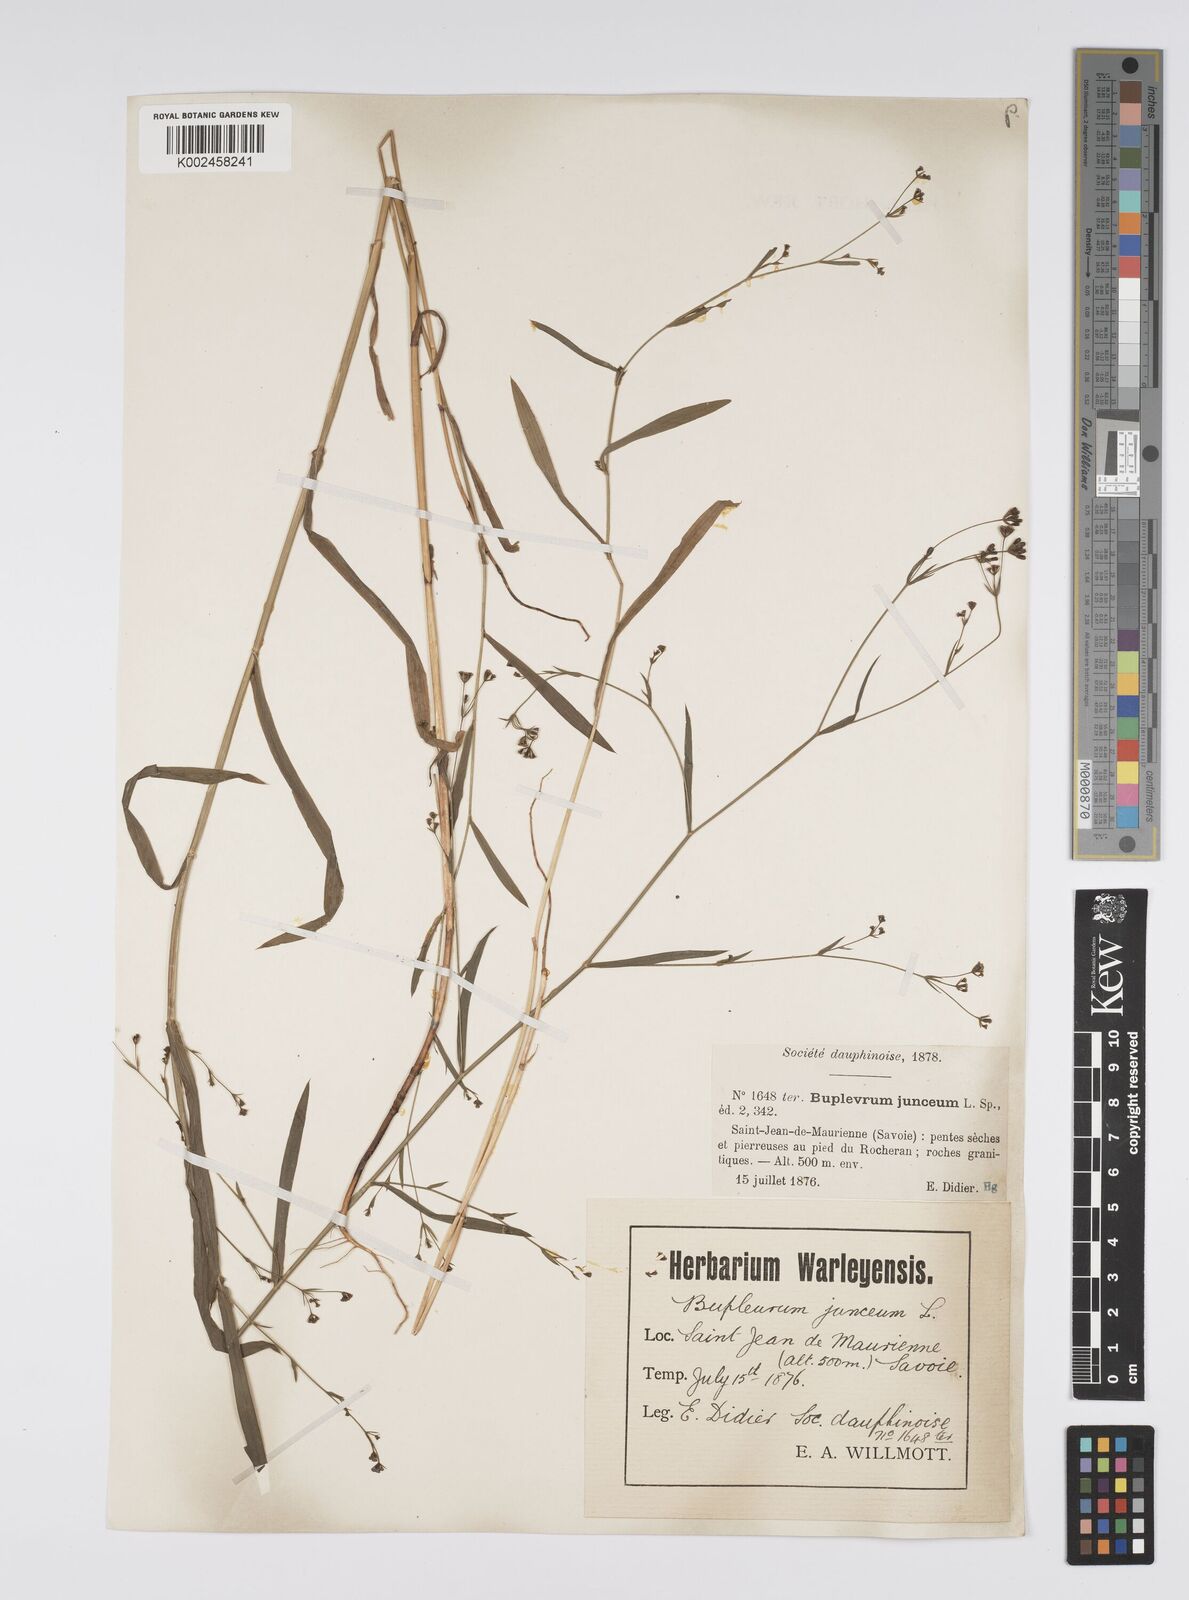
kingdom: Plantae
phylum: Tracheophyta
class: Magnoliopsida
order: Apiales
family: Apiaceae
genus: Bupleurum
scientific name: Bupleurum praealtum
